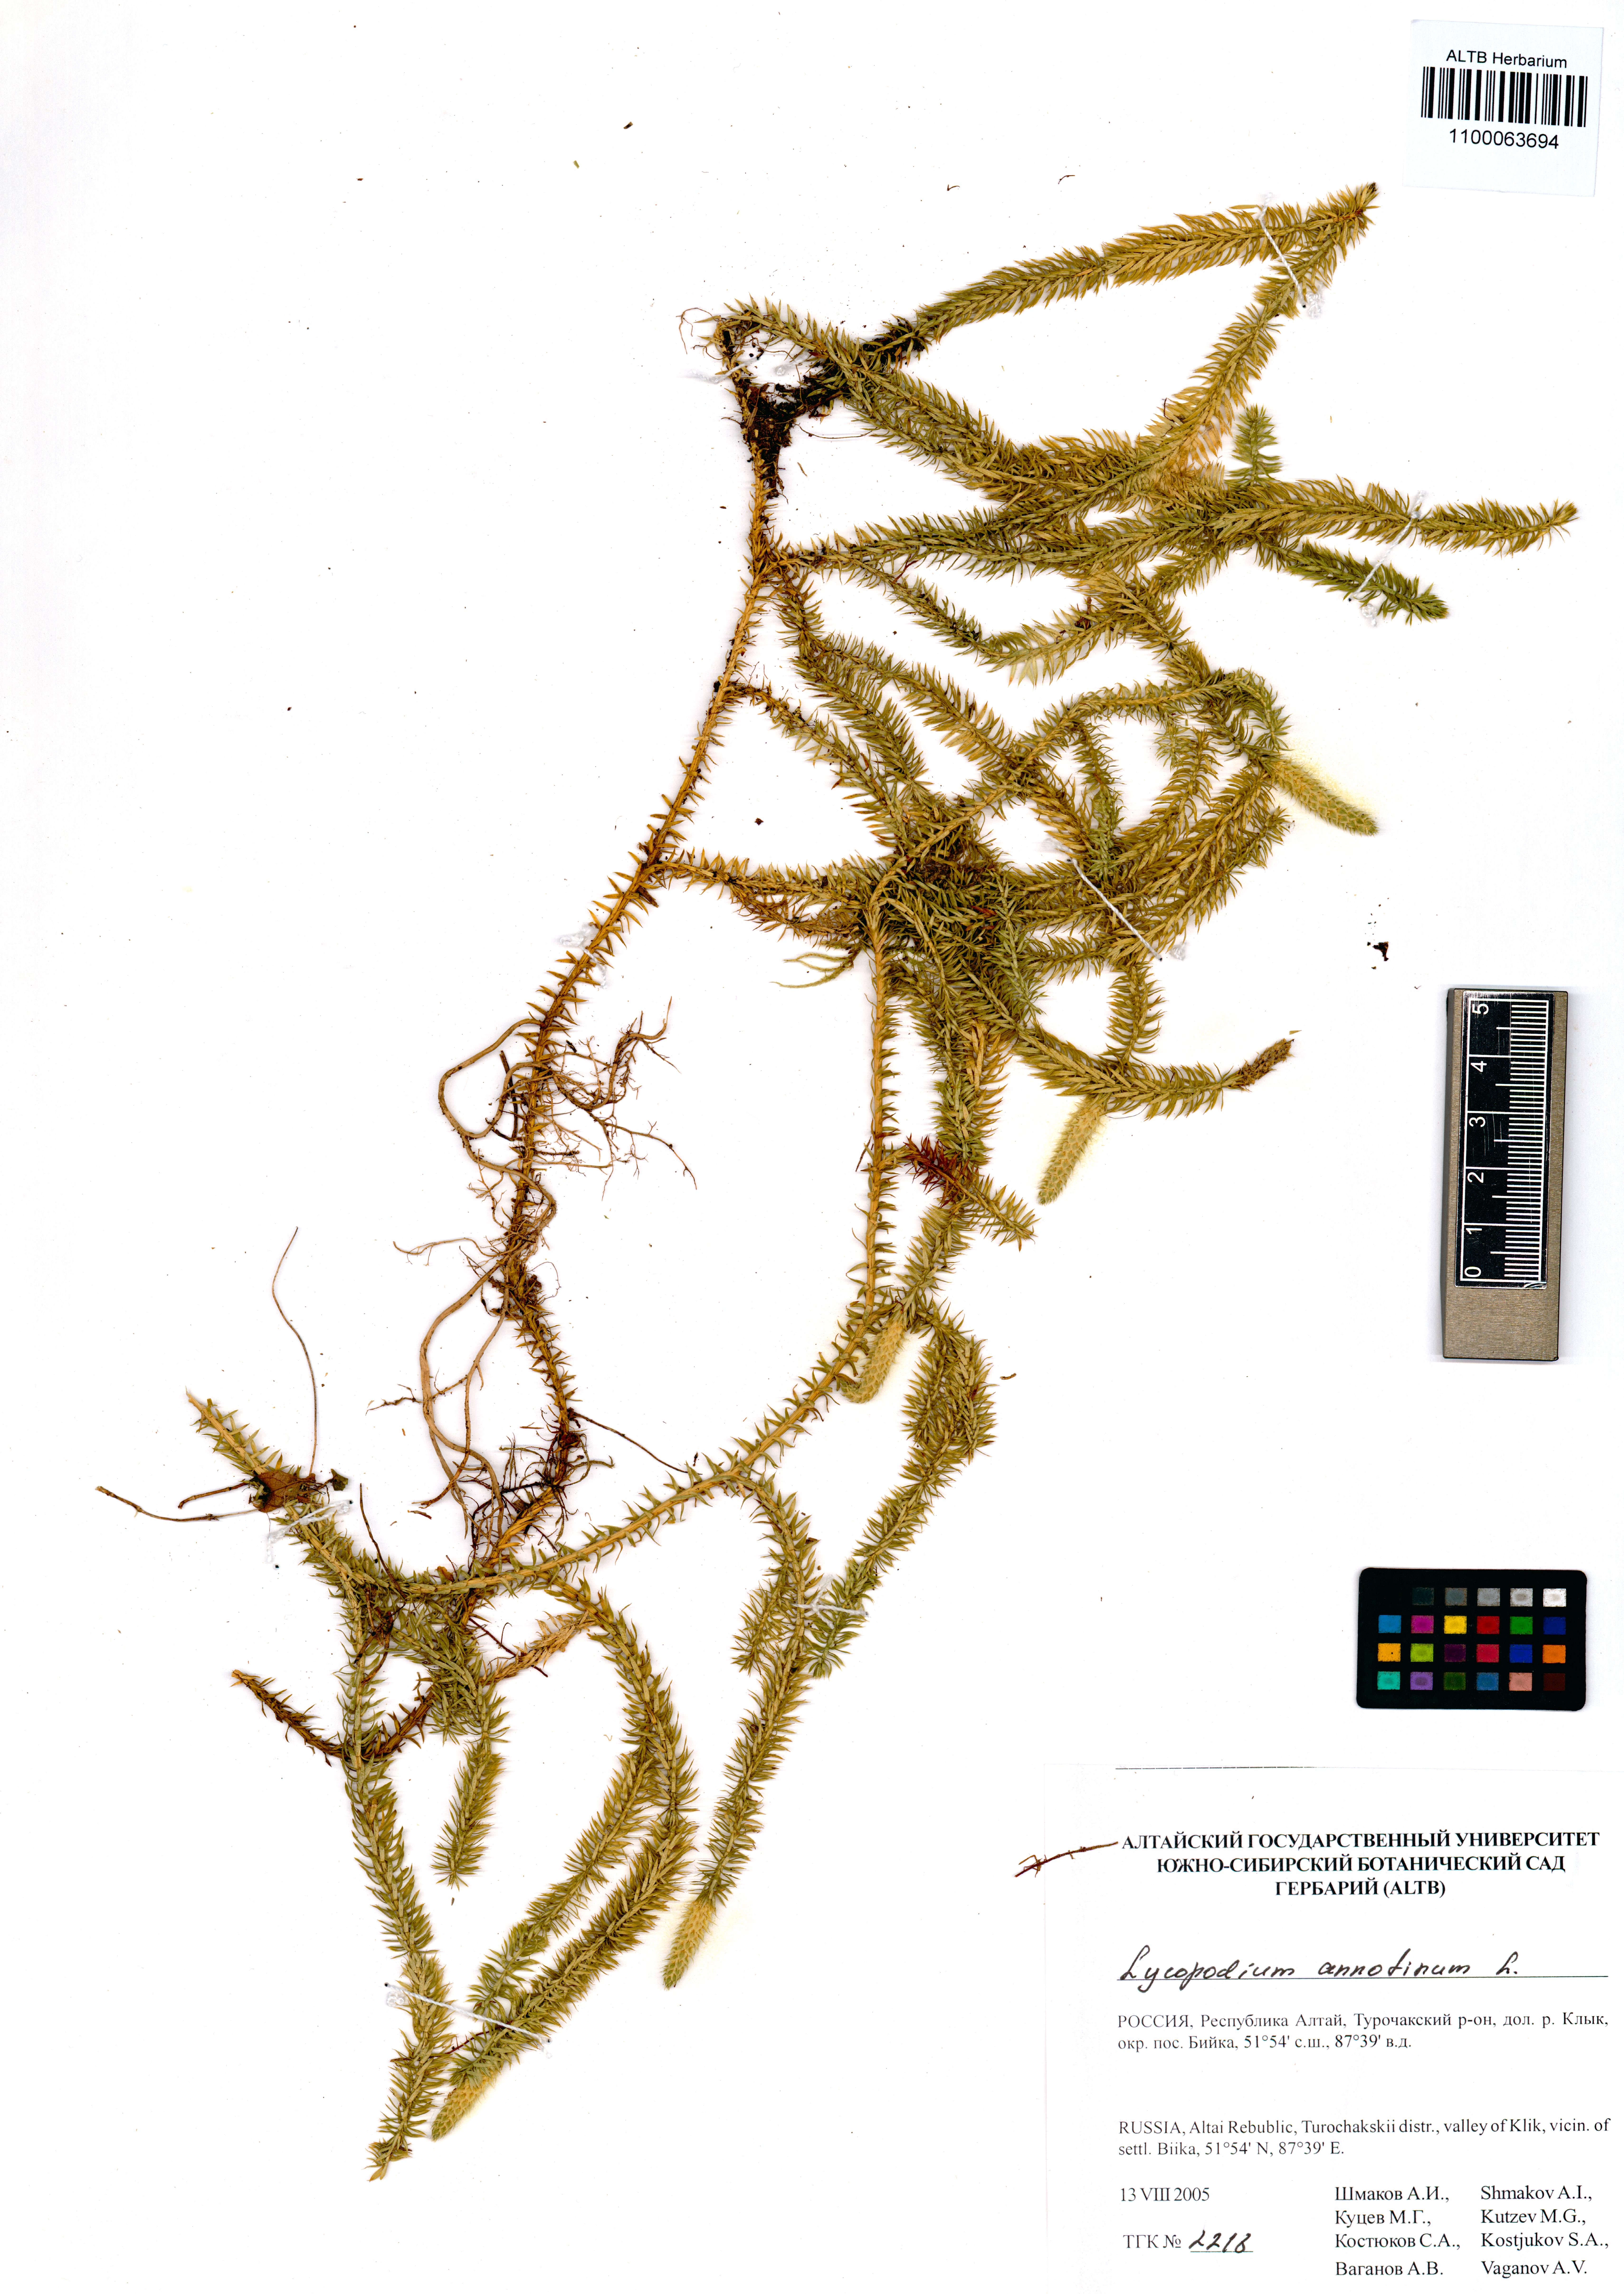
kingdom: Plantae
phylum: Tracheophyta
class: Lycopodiopsida
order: Lycopodiales
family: Lycopodiaceae
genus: Spinulum
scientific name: Spinulum annotinum
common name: Interrupted club-moss
